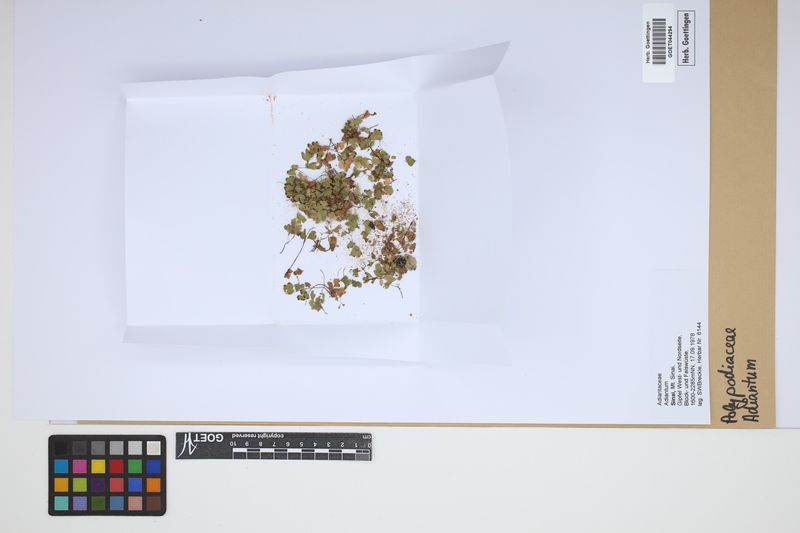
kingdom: Plantae
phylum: Tracheophyta
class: Polypodiopsida
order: Polypodiales
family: Pteridaceae
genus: Adiantum
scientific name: Adiantum
